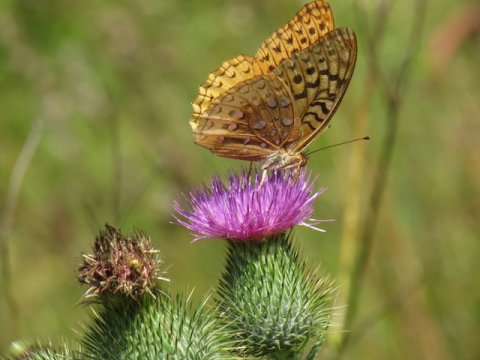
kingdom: Animalia
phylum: Arthropoda
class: Insecta
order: Lepidoptera
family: Nymphalidae
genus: Speyeria
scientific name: Speyeria cybele
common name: Great Spangled Fritillary
